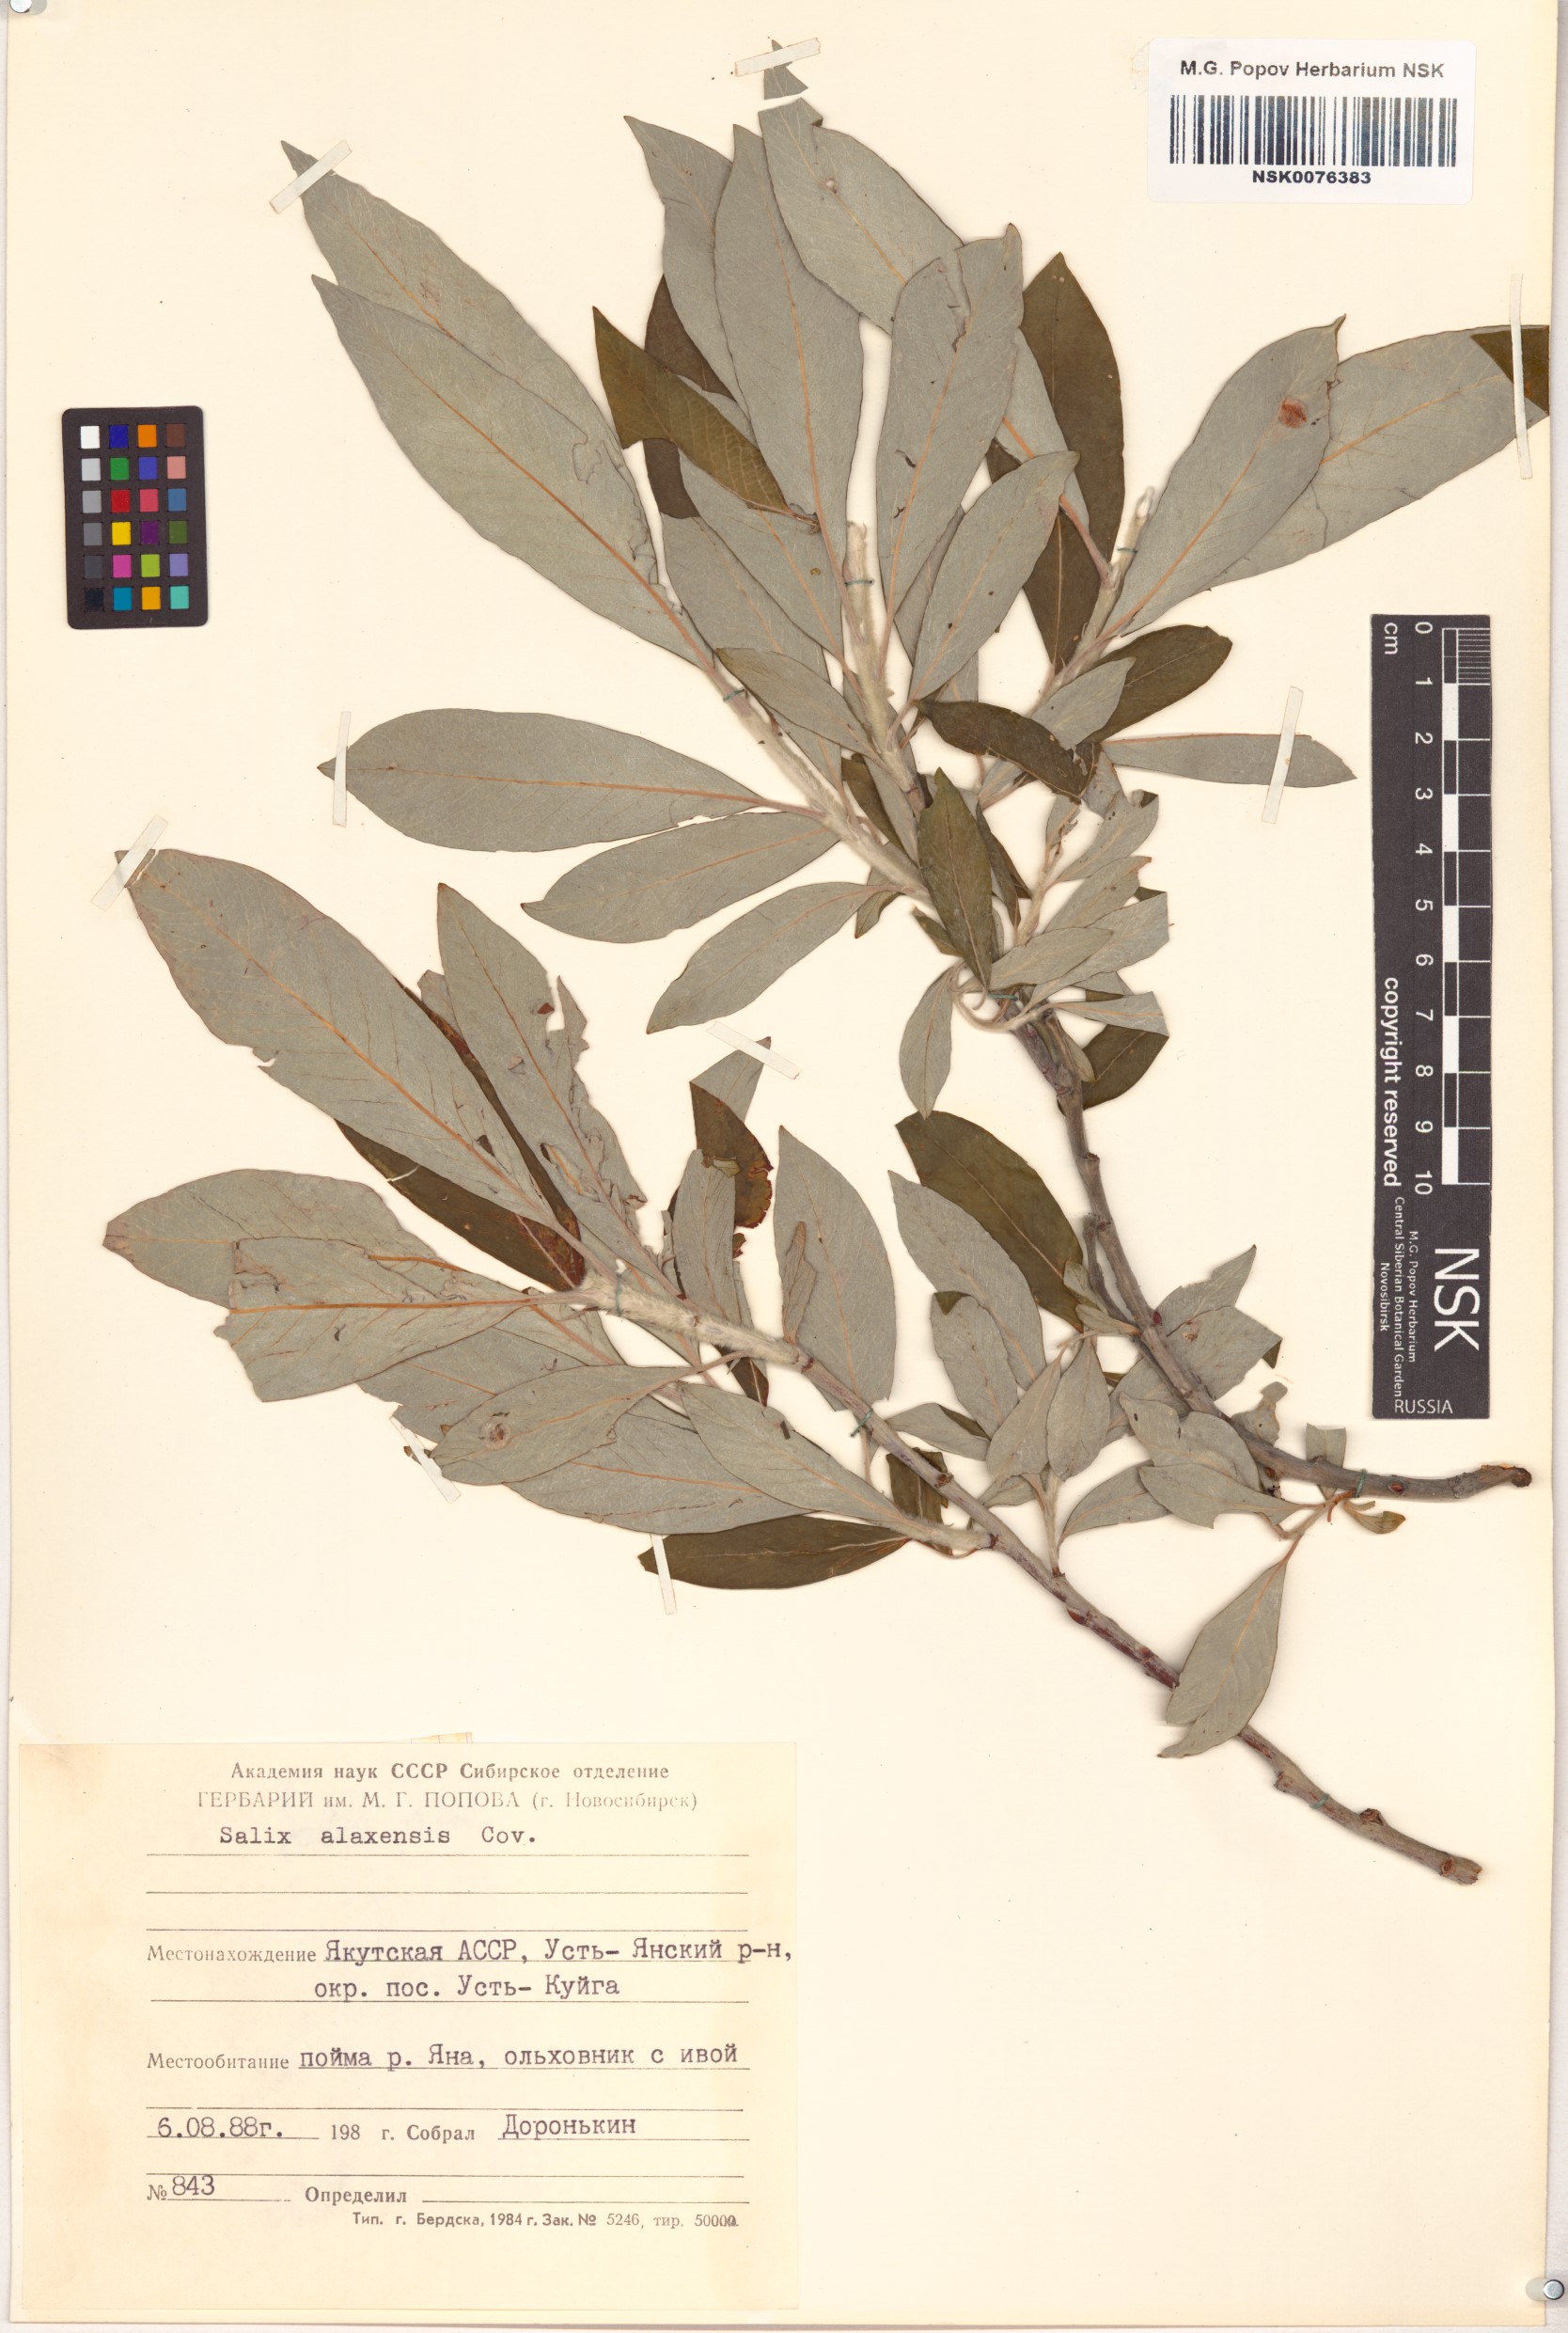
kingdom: Plantae
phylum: Tracheophyta
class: Magnoliopsida
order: Malpighiales
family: Salicaceae
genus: Salix
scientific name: Salix alaxensis
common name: Feltleaf willow
